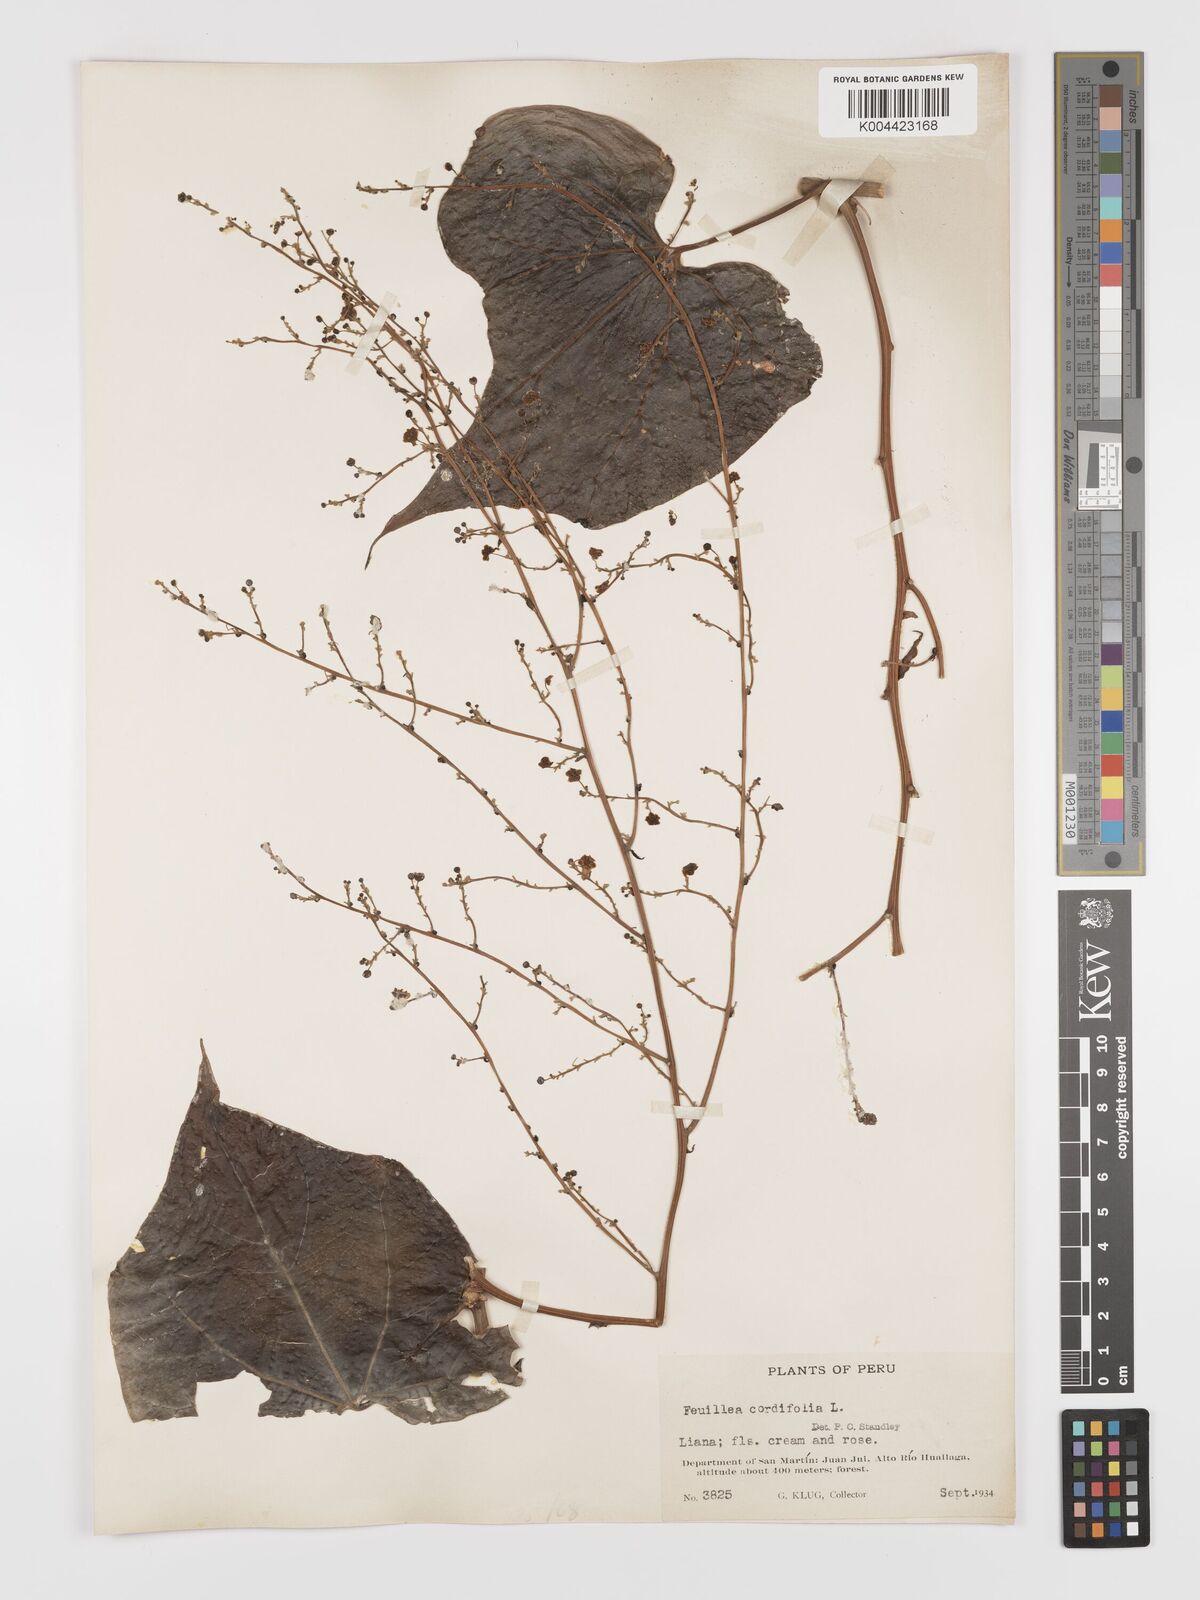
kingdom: Plantae
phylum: Tracheophyta
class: Magnoliopsida
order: Cucurbitales
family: Cucurbitaceae
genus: Fevillea
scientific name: Fevillea
